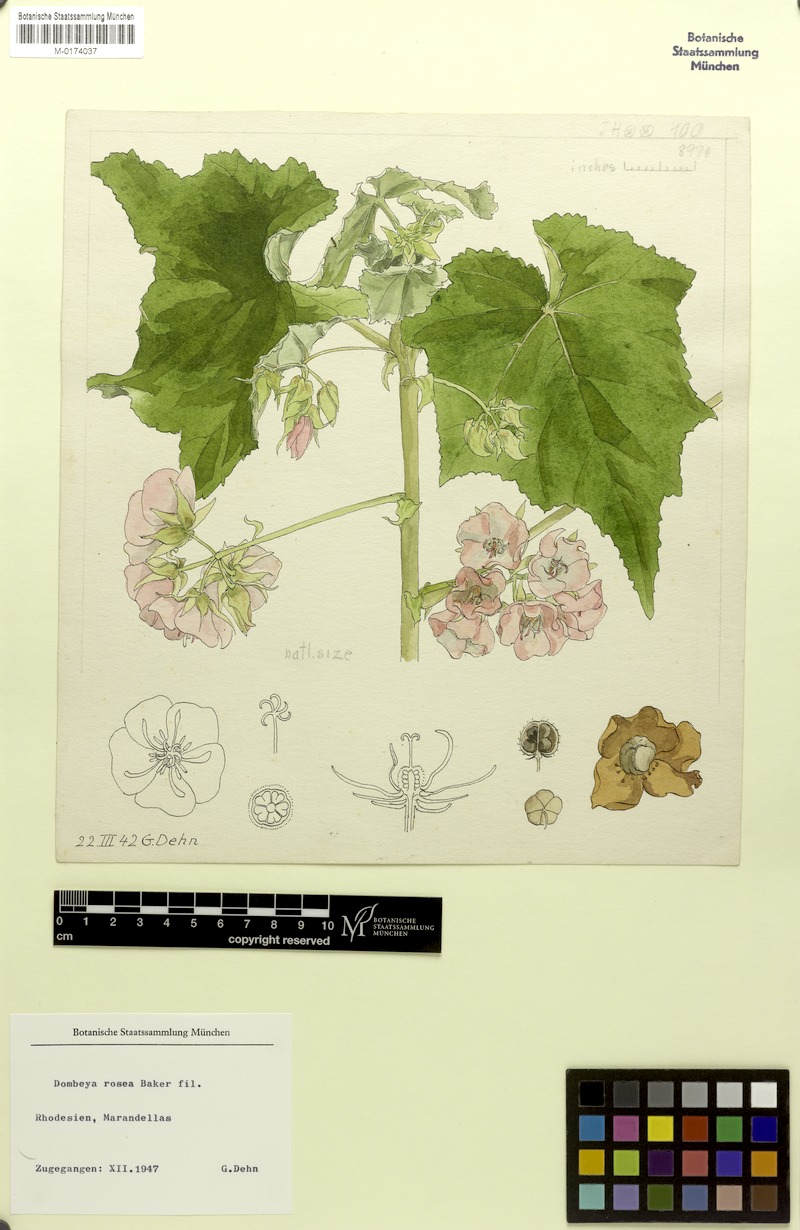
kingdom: Plantae
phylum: Tracheophyta
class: Magnoliopsida
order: Malvales
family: Malvaceae
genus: Dombeya
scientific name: Dombeya burgessiae
